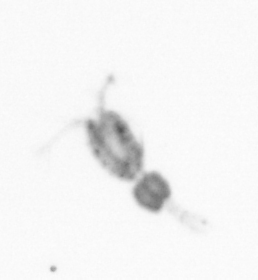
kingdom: Animalia
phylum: Arthropoda
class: Copepoda
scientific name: Copepoda
